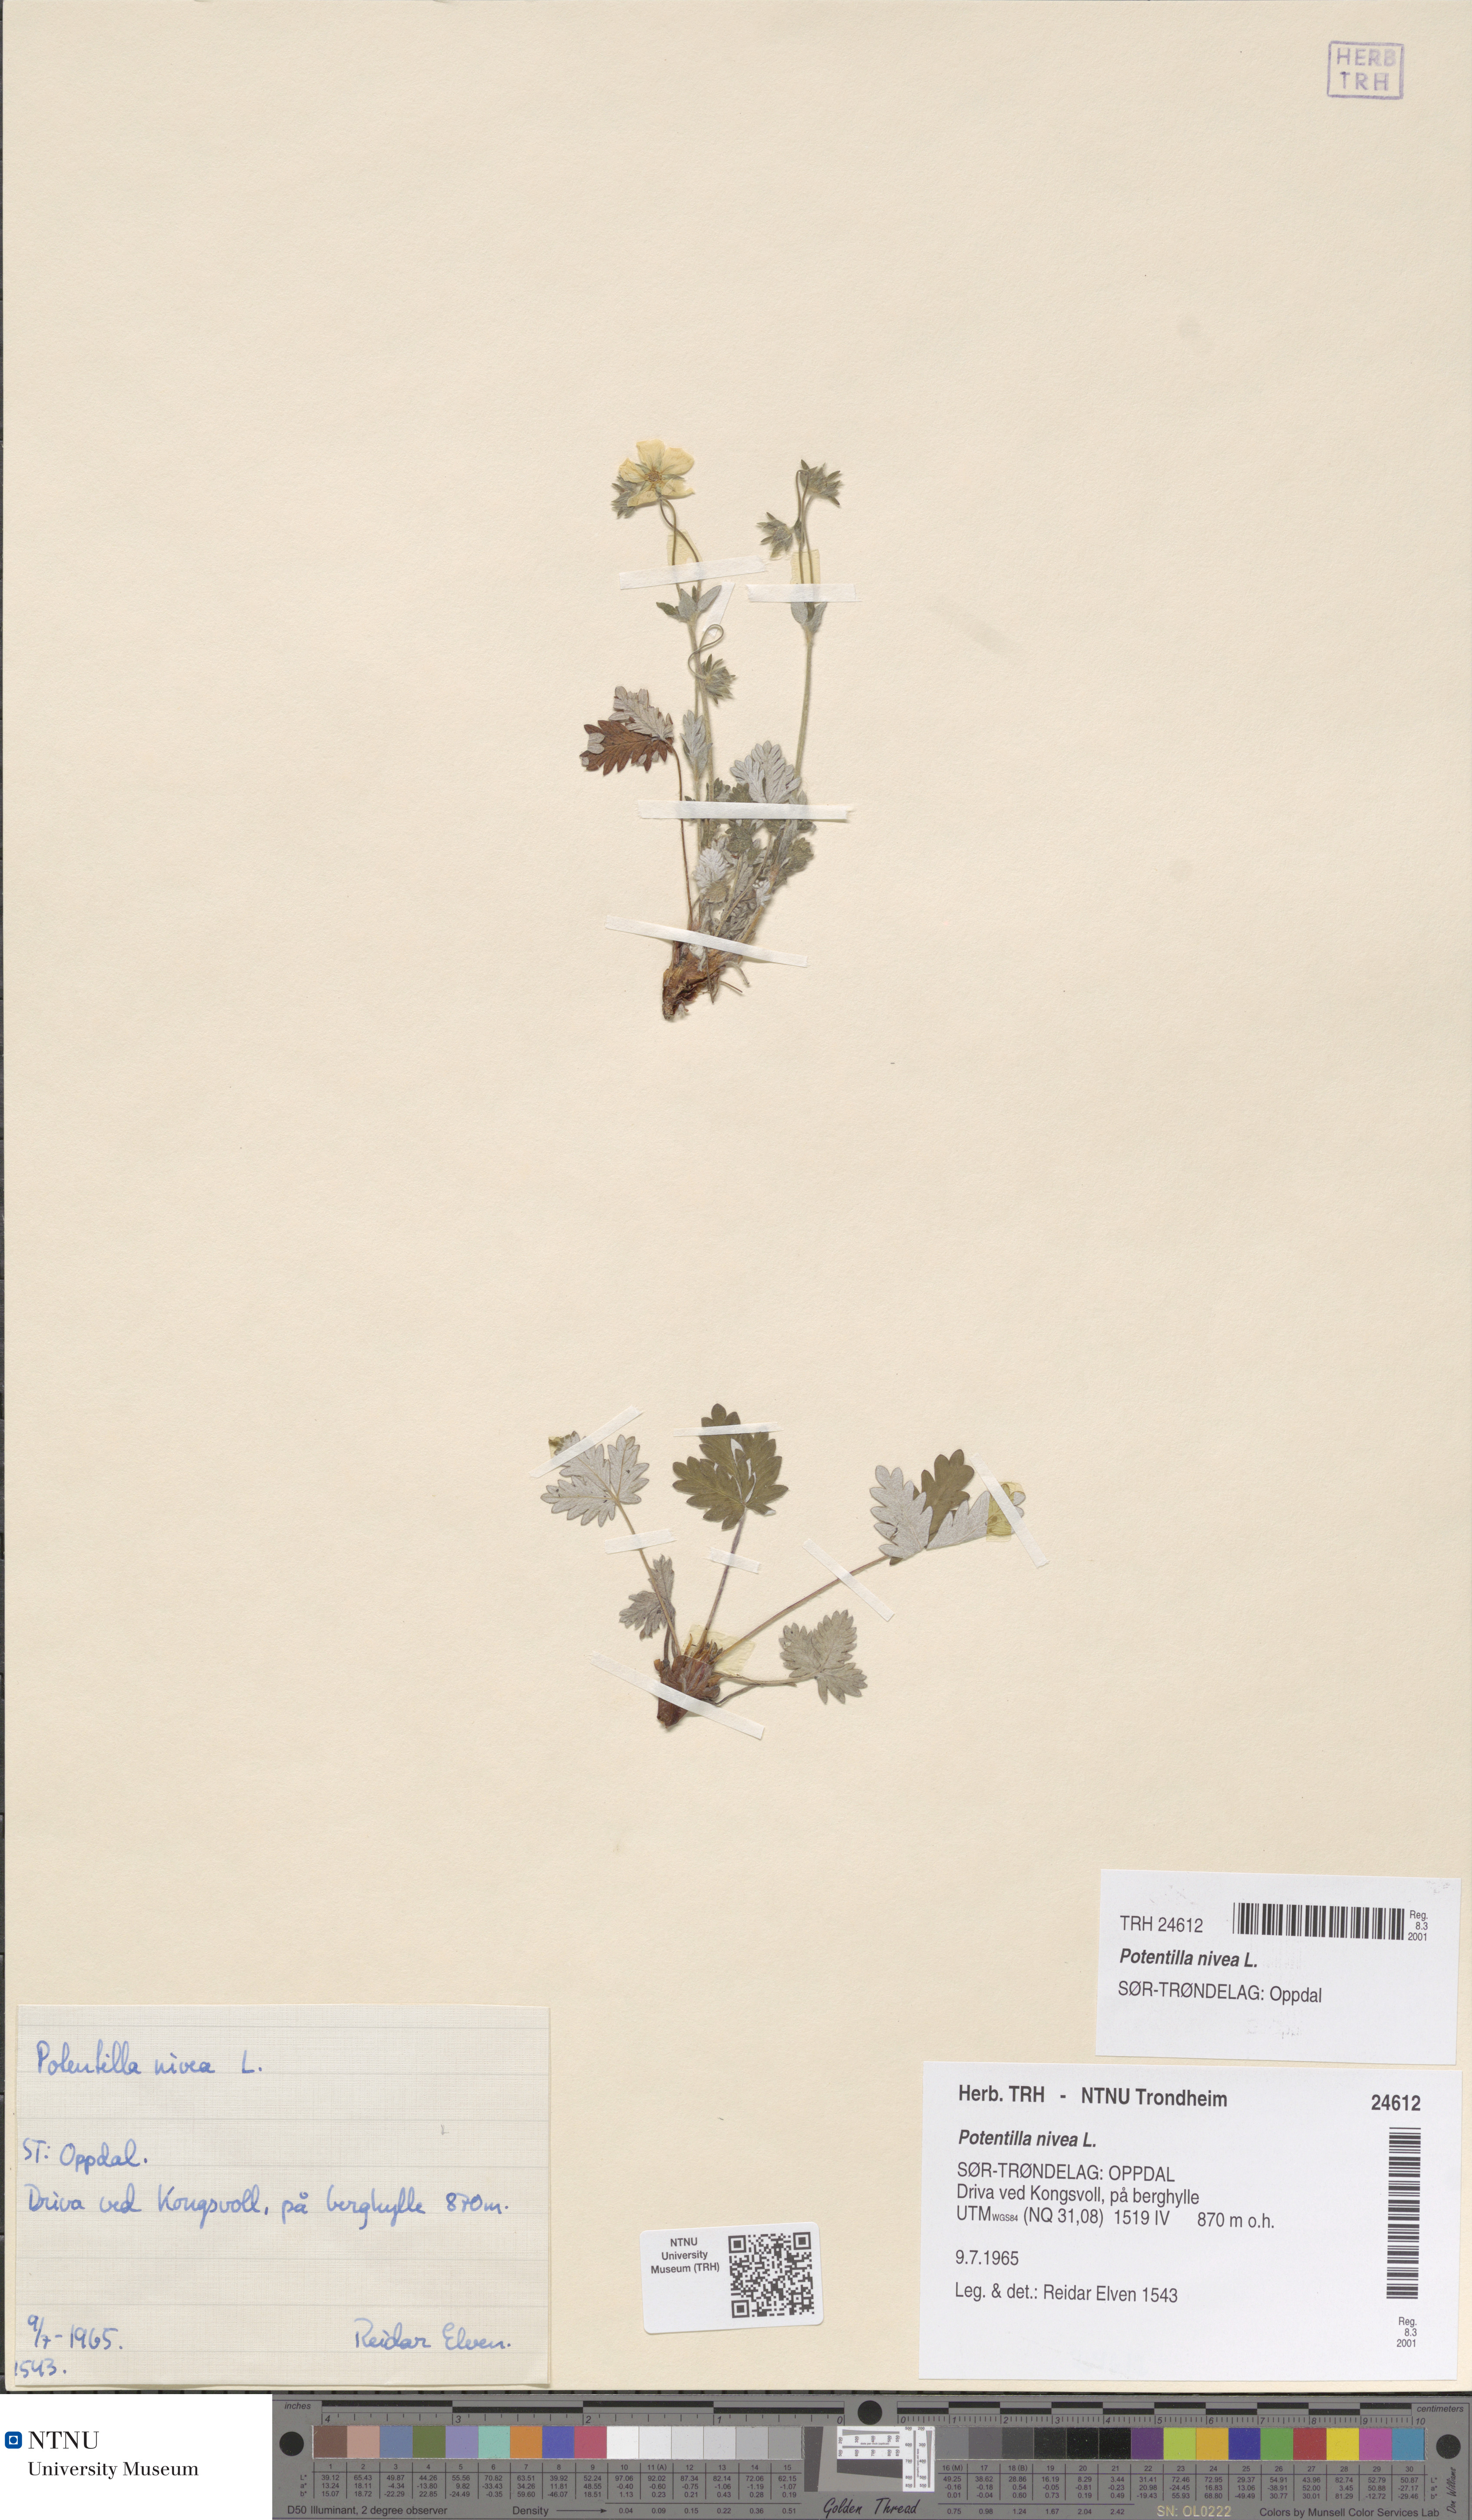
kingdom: Plantae
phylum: Tracheophyta
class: Magnoliopsida
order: Rosales
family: Rosaceae
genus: Potentilla
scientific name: Potentilla nivea
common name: Snow cinquefoil
